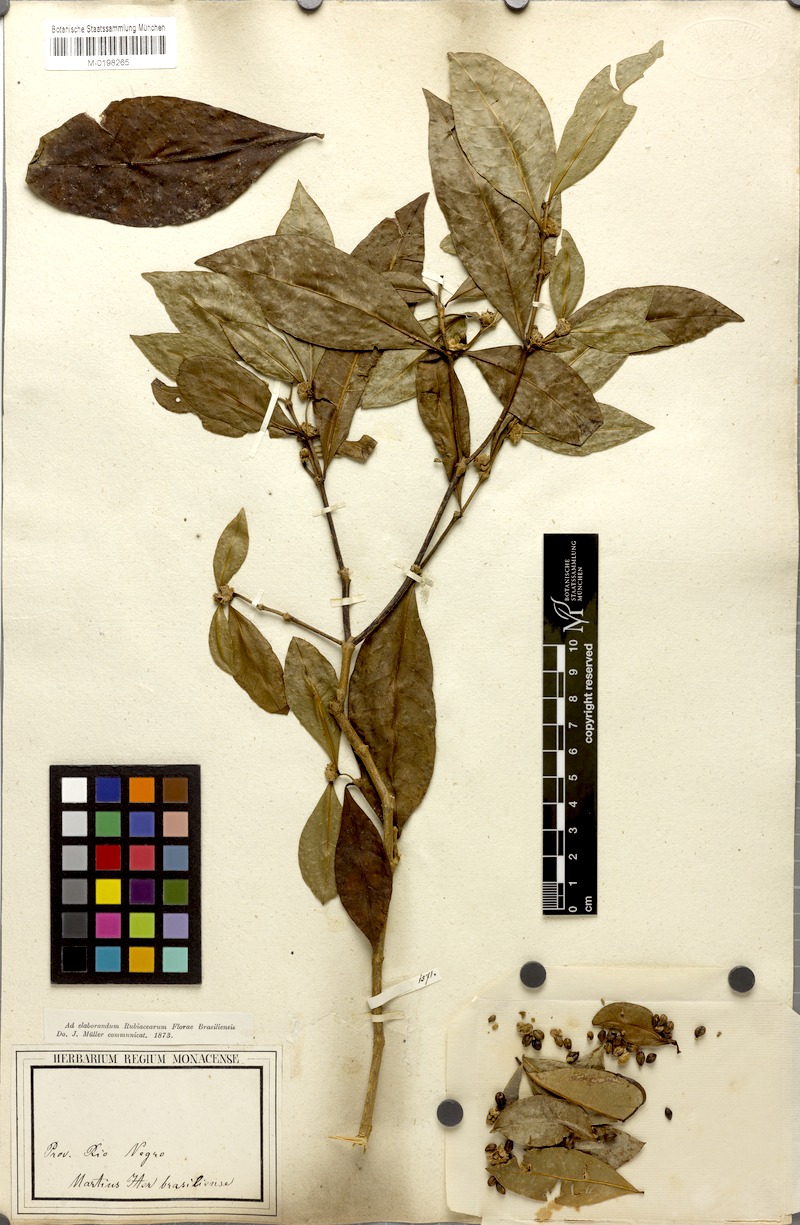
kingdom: Plantae
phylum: Tracheophyta
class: Magnoliopsida
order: Gentianales
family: Rubiaceae
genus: Psychotria
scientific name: Psychotria Mapouria japurensis
